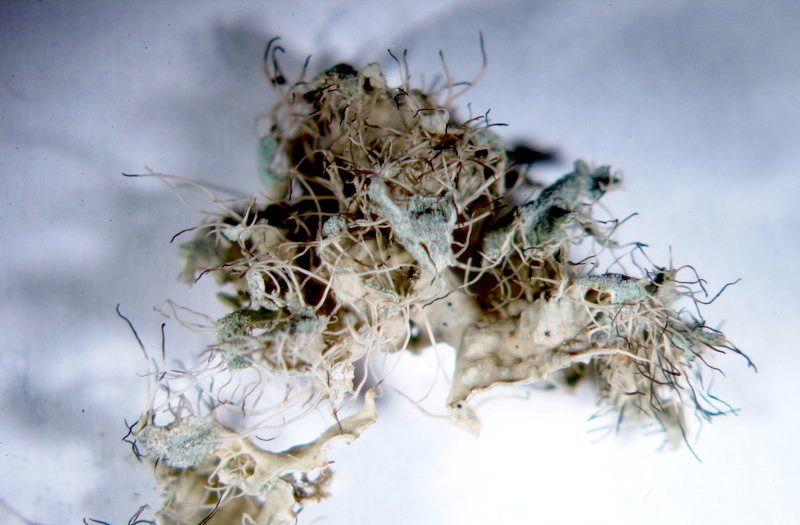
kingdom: Fungi
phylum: Ascomycota
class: Lecanoromycetes
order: Caliciales
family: Physciaceae
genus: Kashiwadia
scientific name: Kashiwadia jackii
